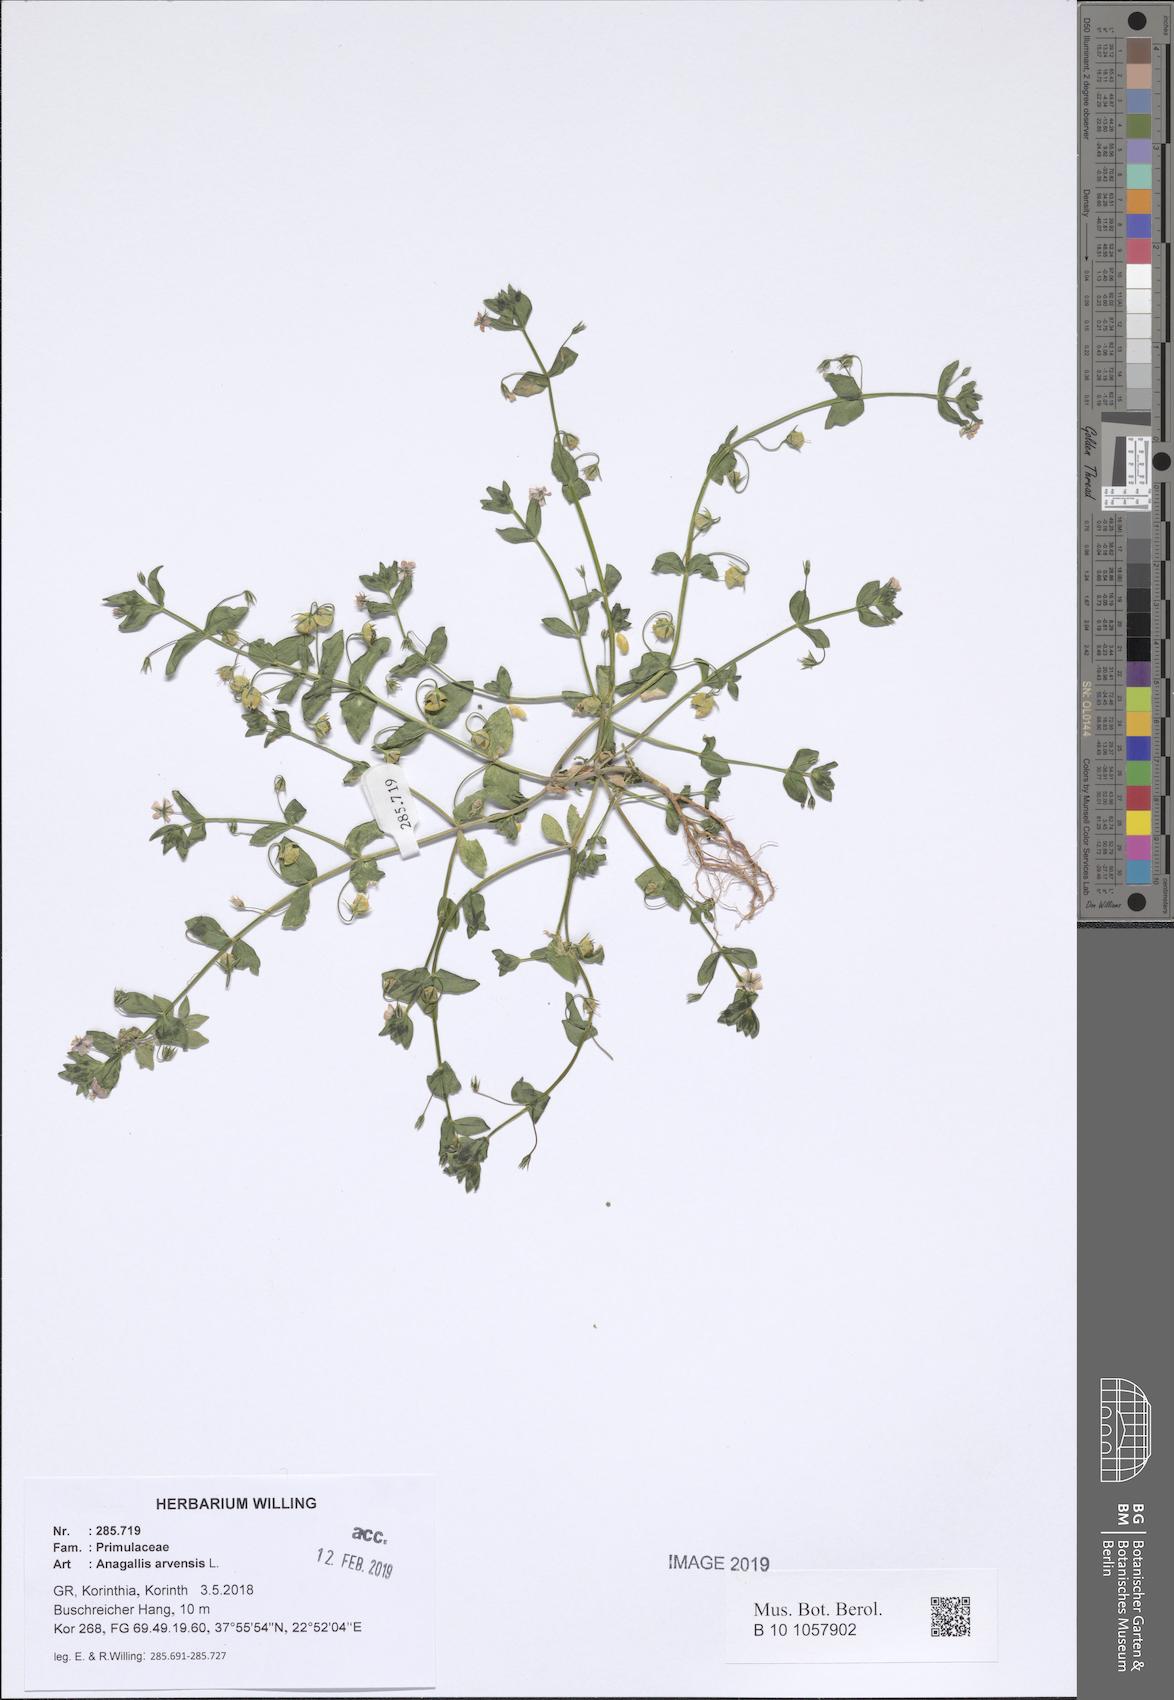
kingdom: Plantae
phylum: Tracheophyta
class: Magnoliopsida
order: Ericales
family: Primulaceae
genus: Lysimachia
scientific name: Lysimachia arvensis
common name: Scarlet pimpernel
